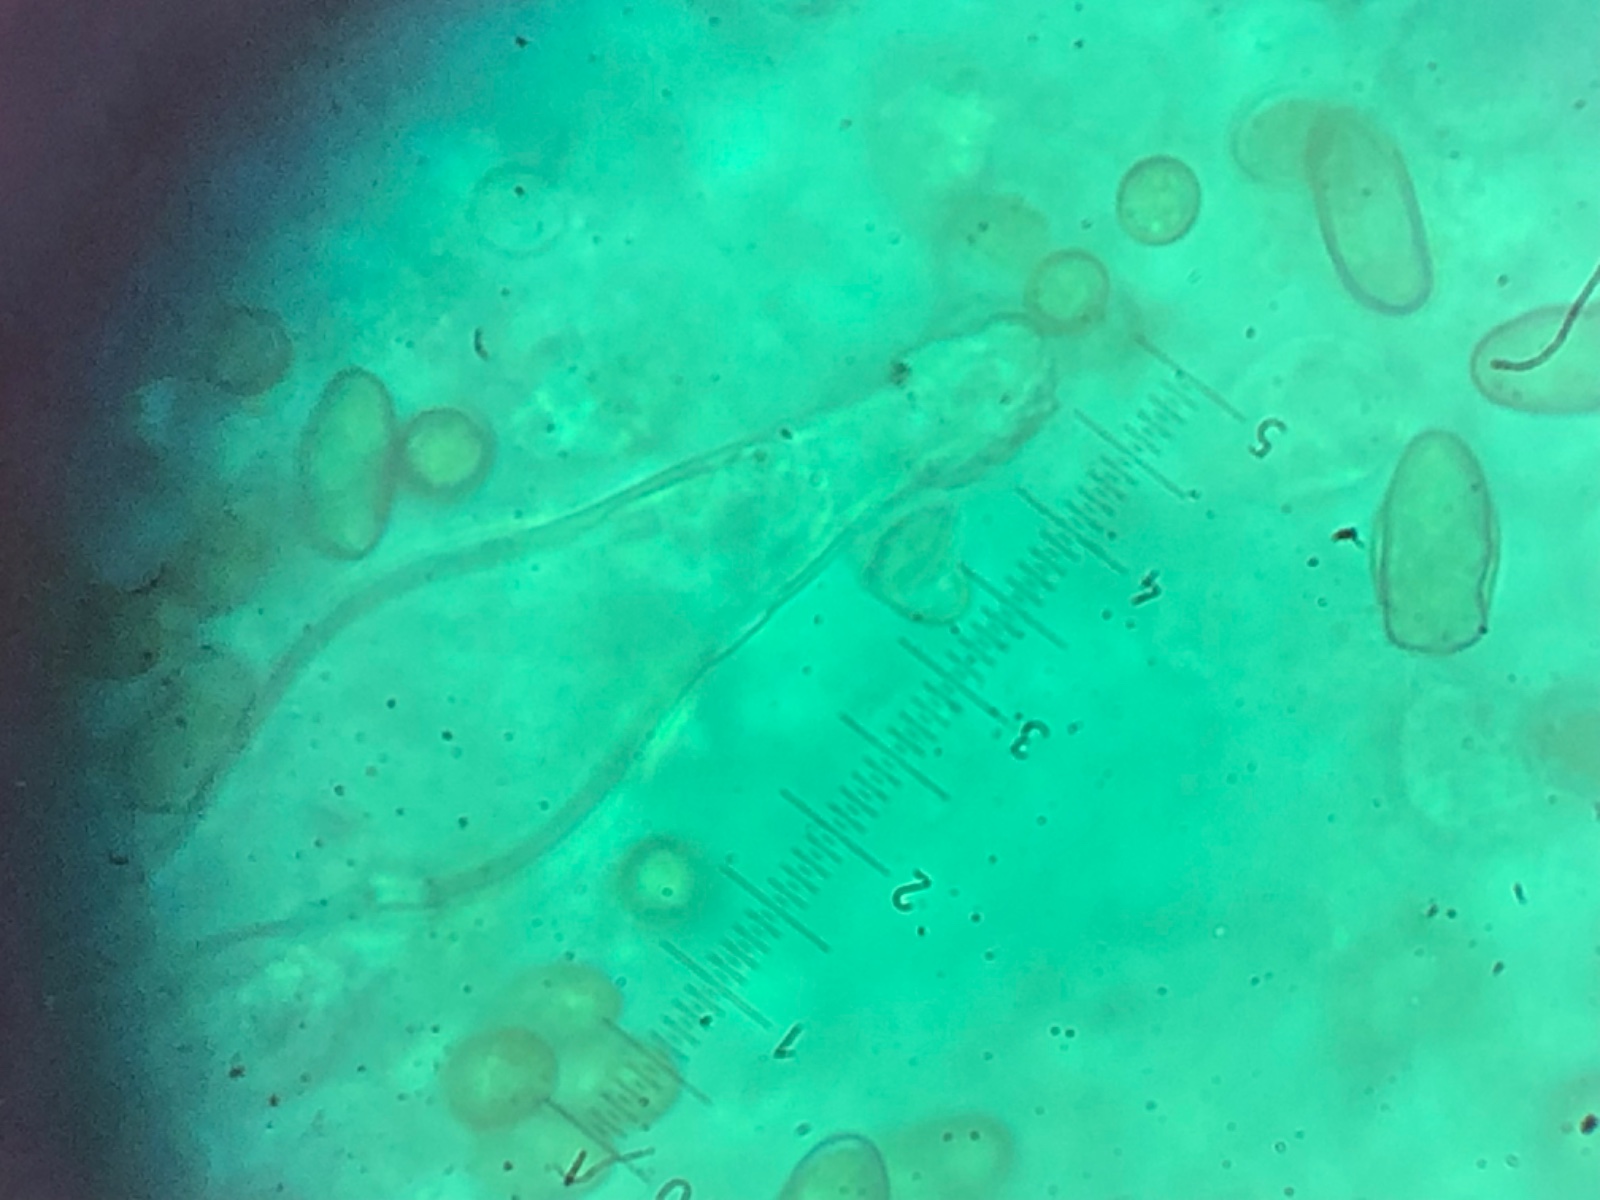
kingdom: Fungi
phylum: Basidiomycota
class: Agaricomycetes
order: Agaricales
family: Inocybaceae
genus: Inocybe
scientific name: Inocybe lacera
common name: laset trævlhat
